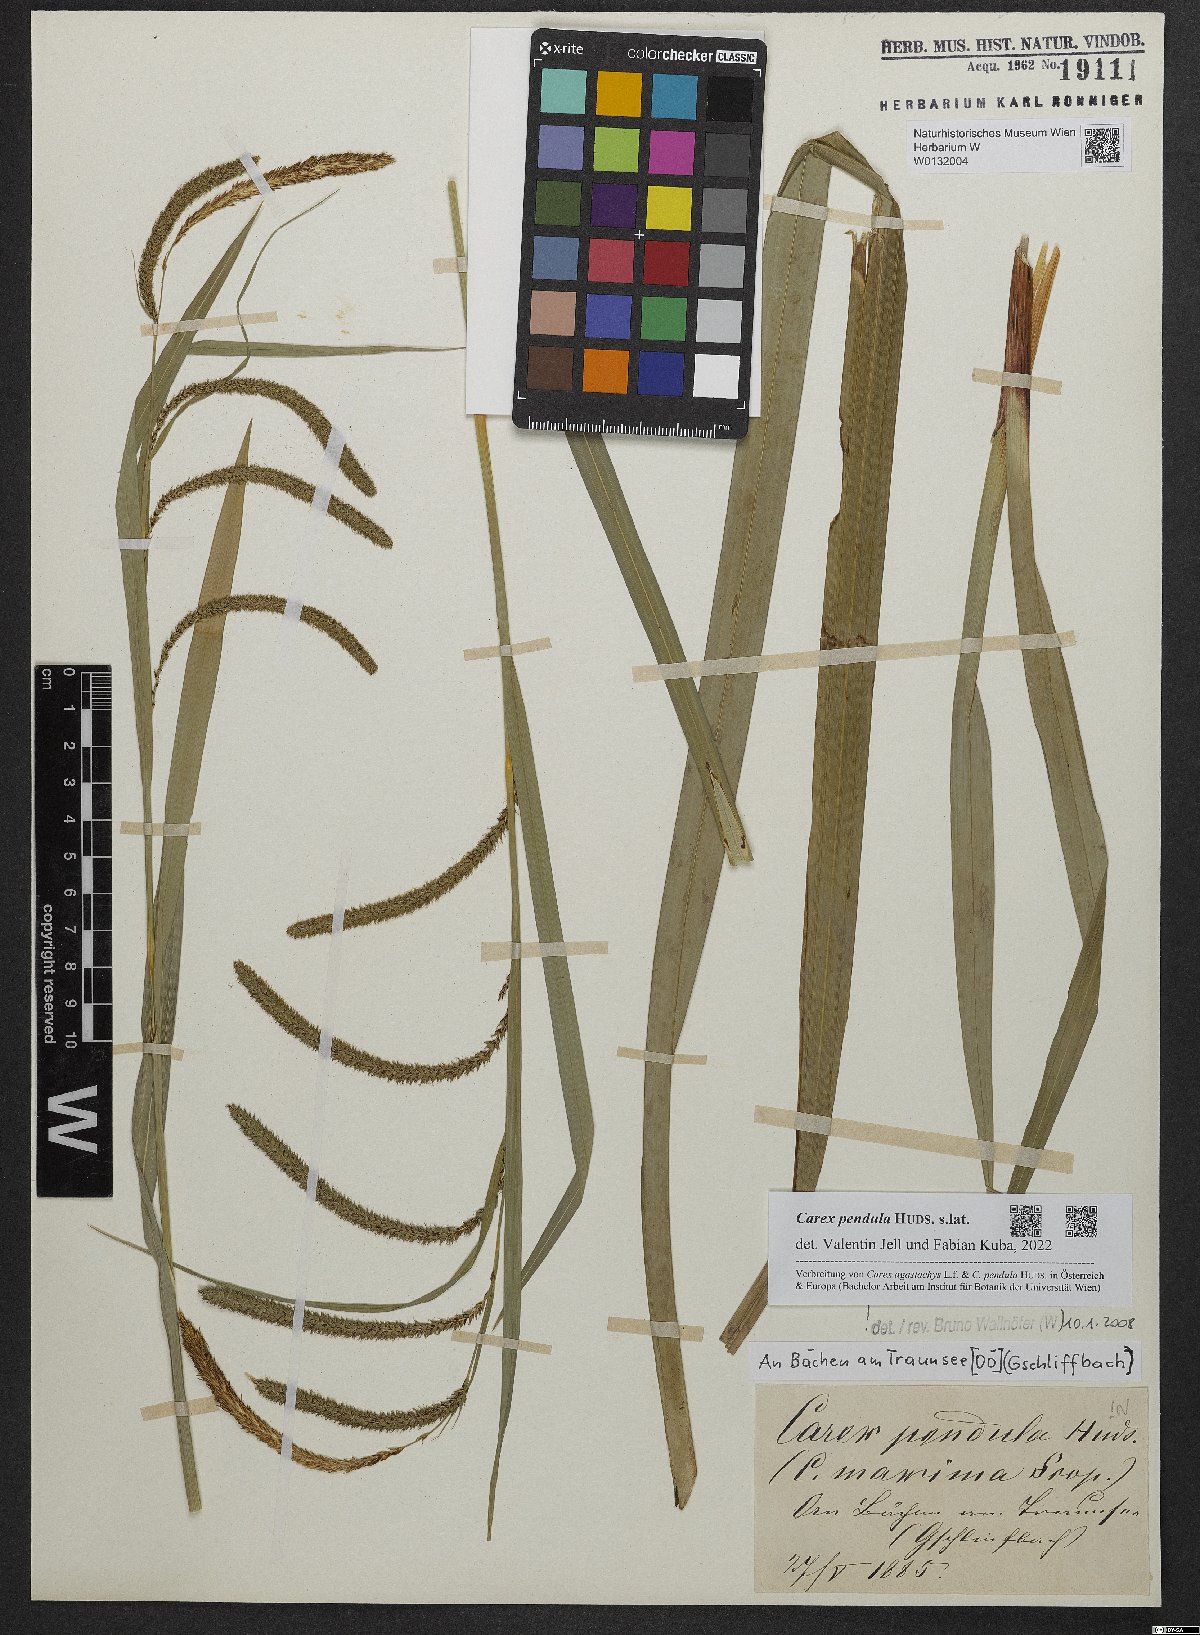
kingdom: Plantae
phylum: Tracheophyta
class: Liliopsida
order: Poales
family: Cyperaceae
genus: Carex
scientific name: Carex pendula
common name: Pendulous sedge
